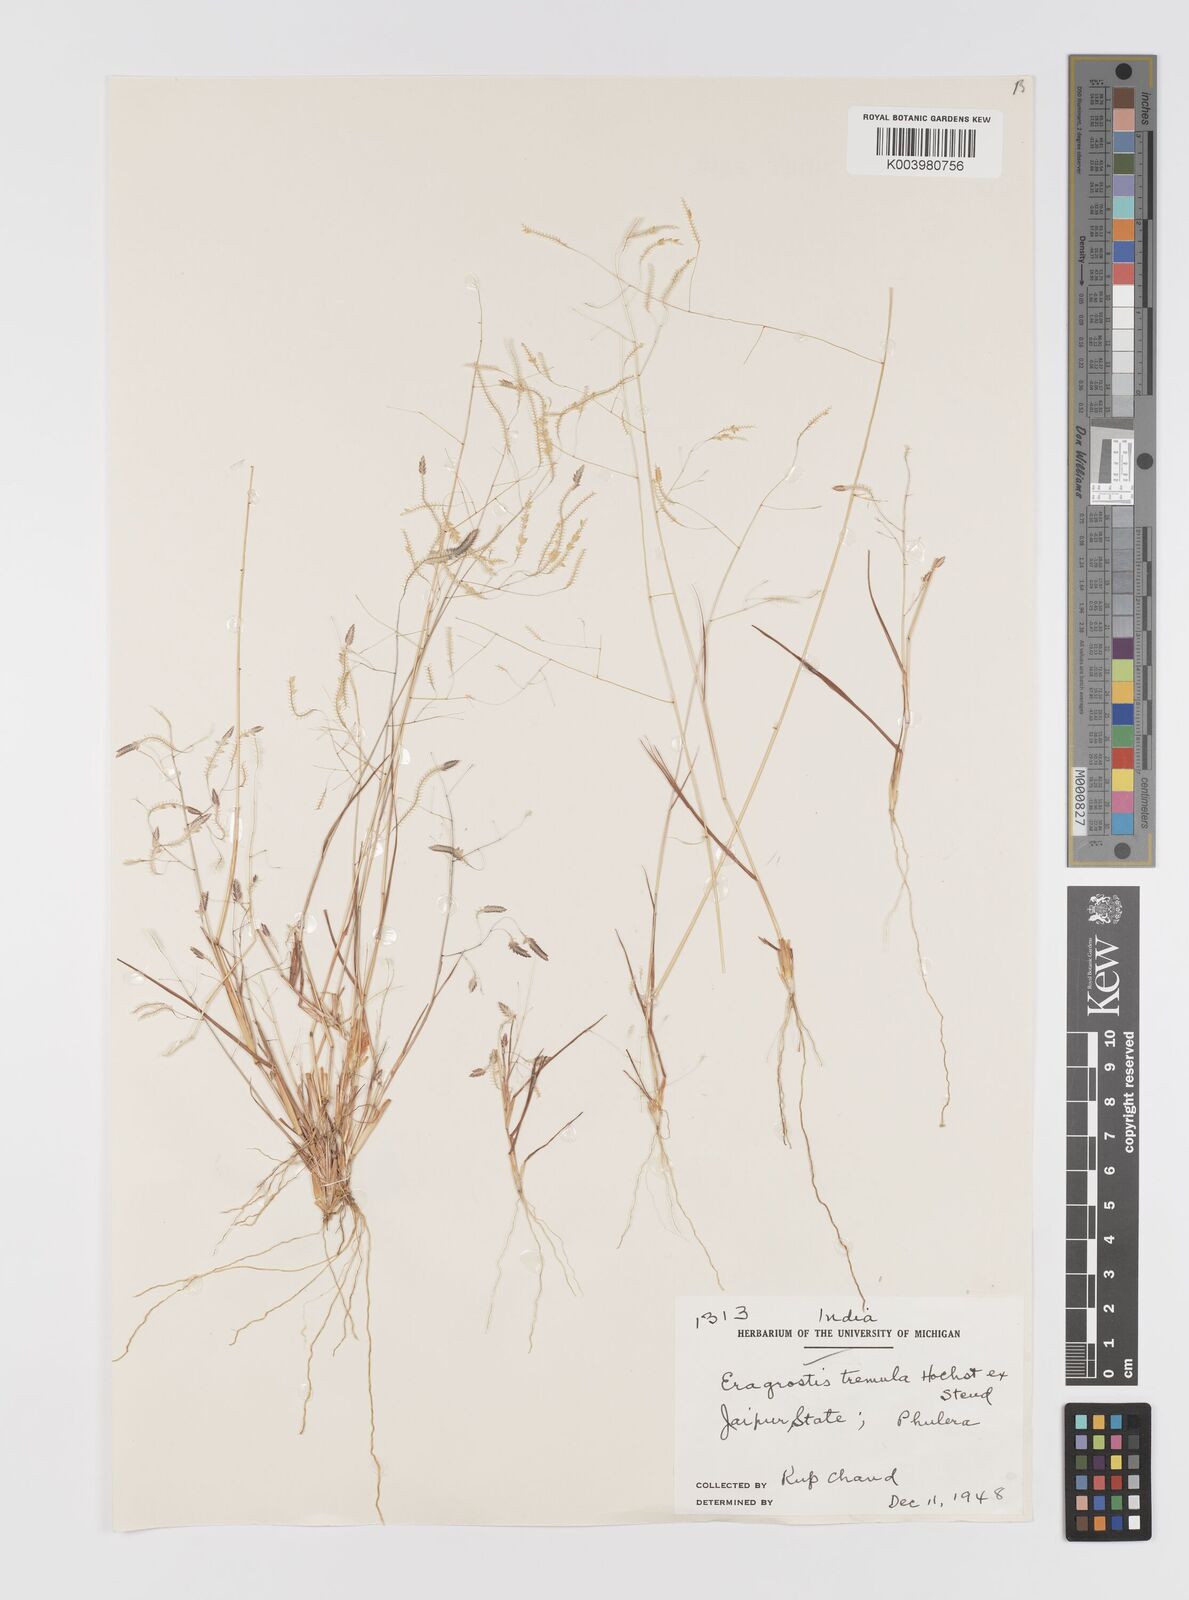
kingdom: Plantae
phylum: Tracheophyta
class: Liliopsida
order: Poales
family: Poaceae
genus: Eragrostis
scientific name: Eragrostis tremula
